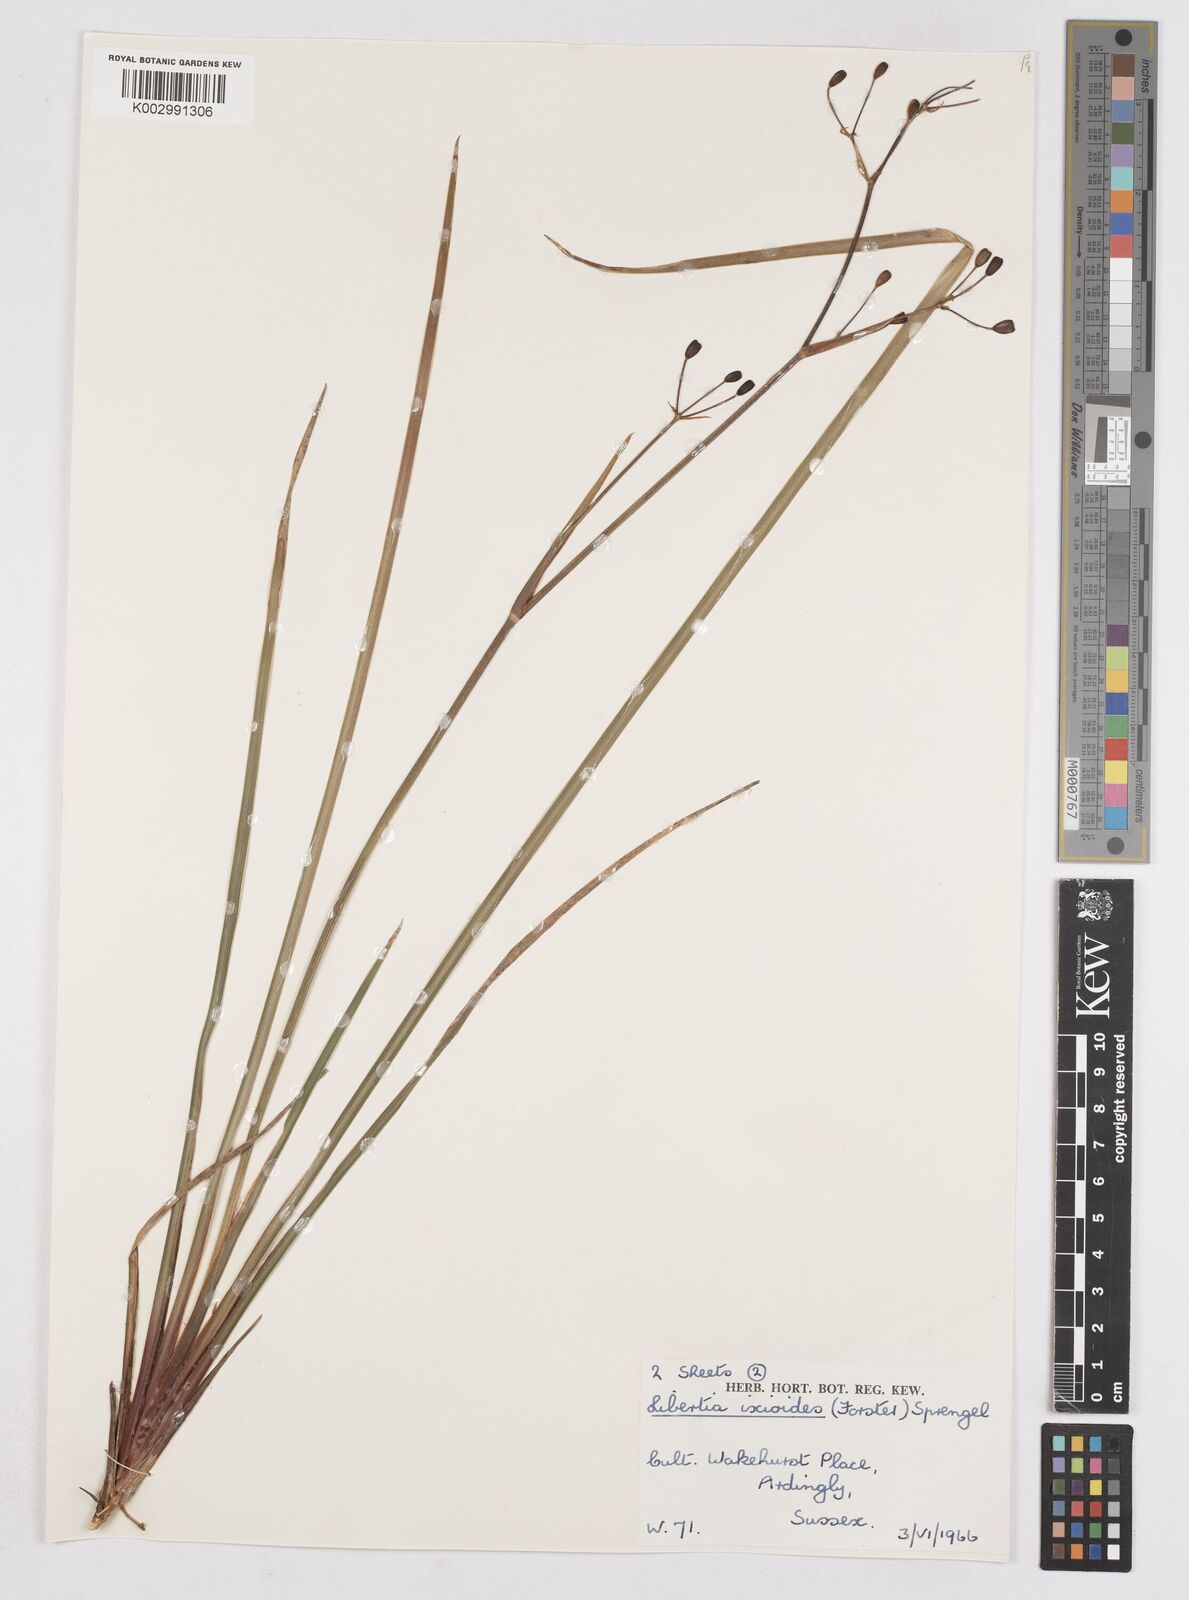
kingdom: Plantae
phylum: Tracheophyta
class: Liliopsida
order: Asparagales
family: Iridaceae
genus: Libertia
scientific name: Libertia ixioides
